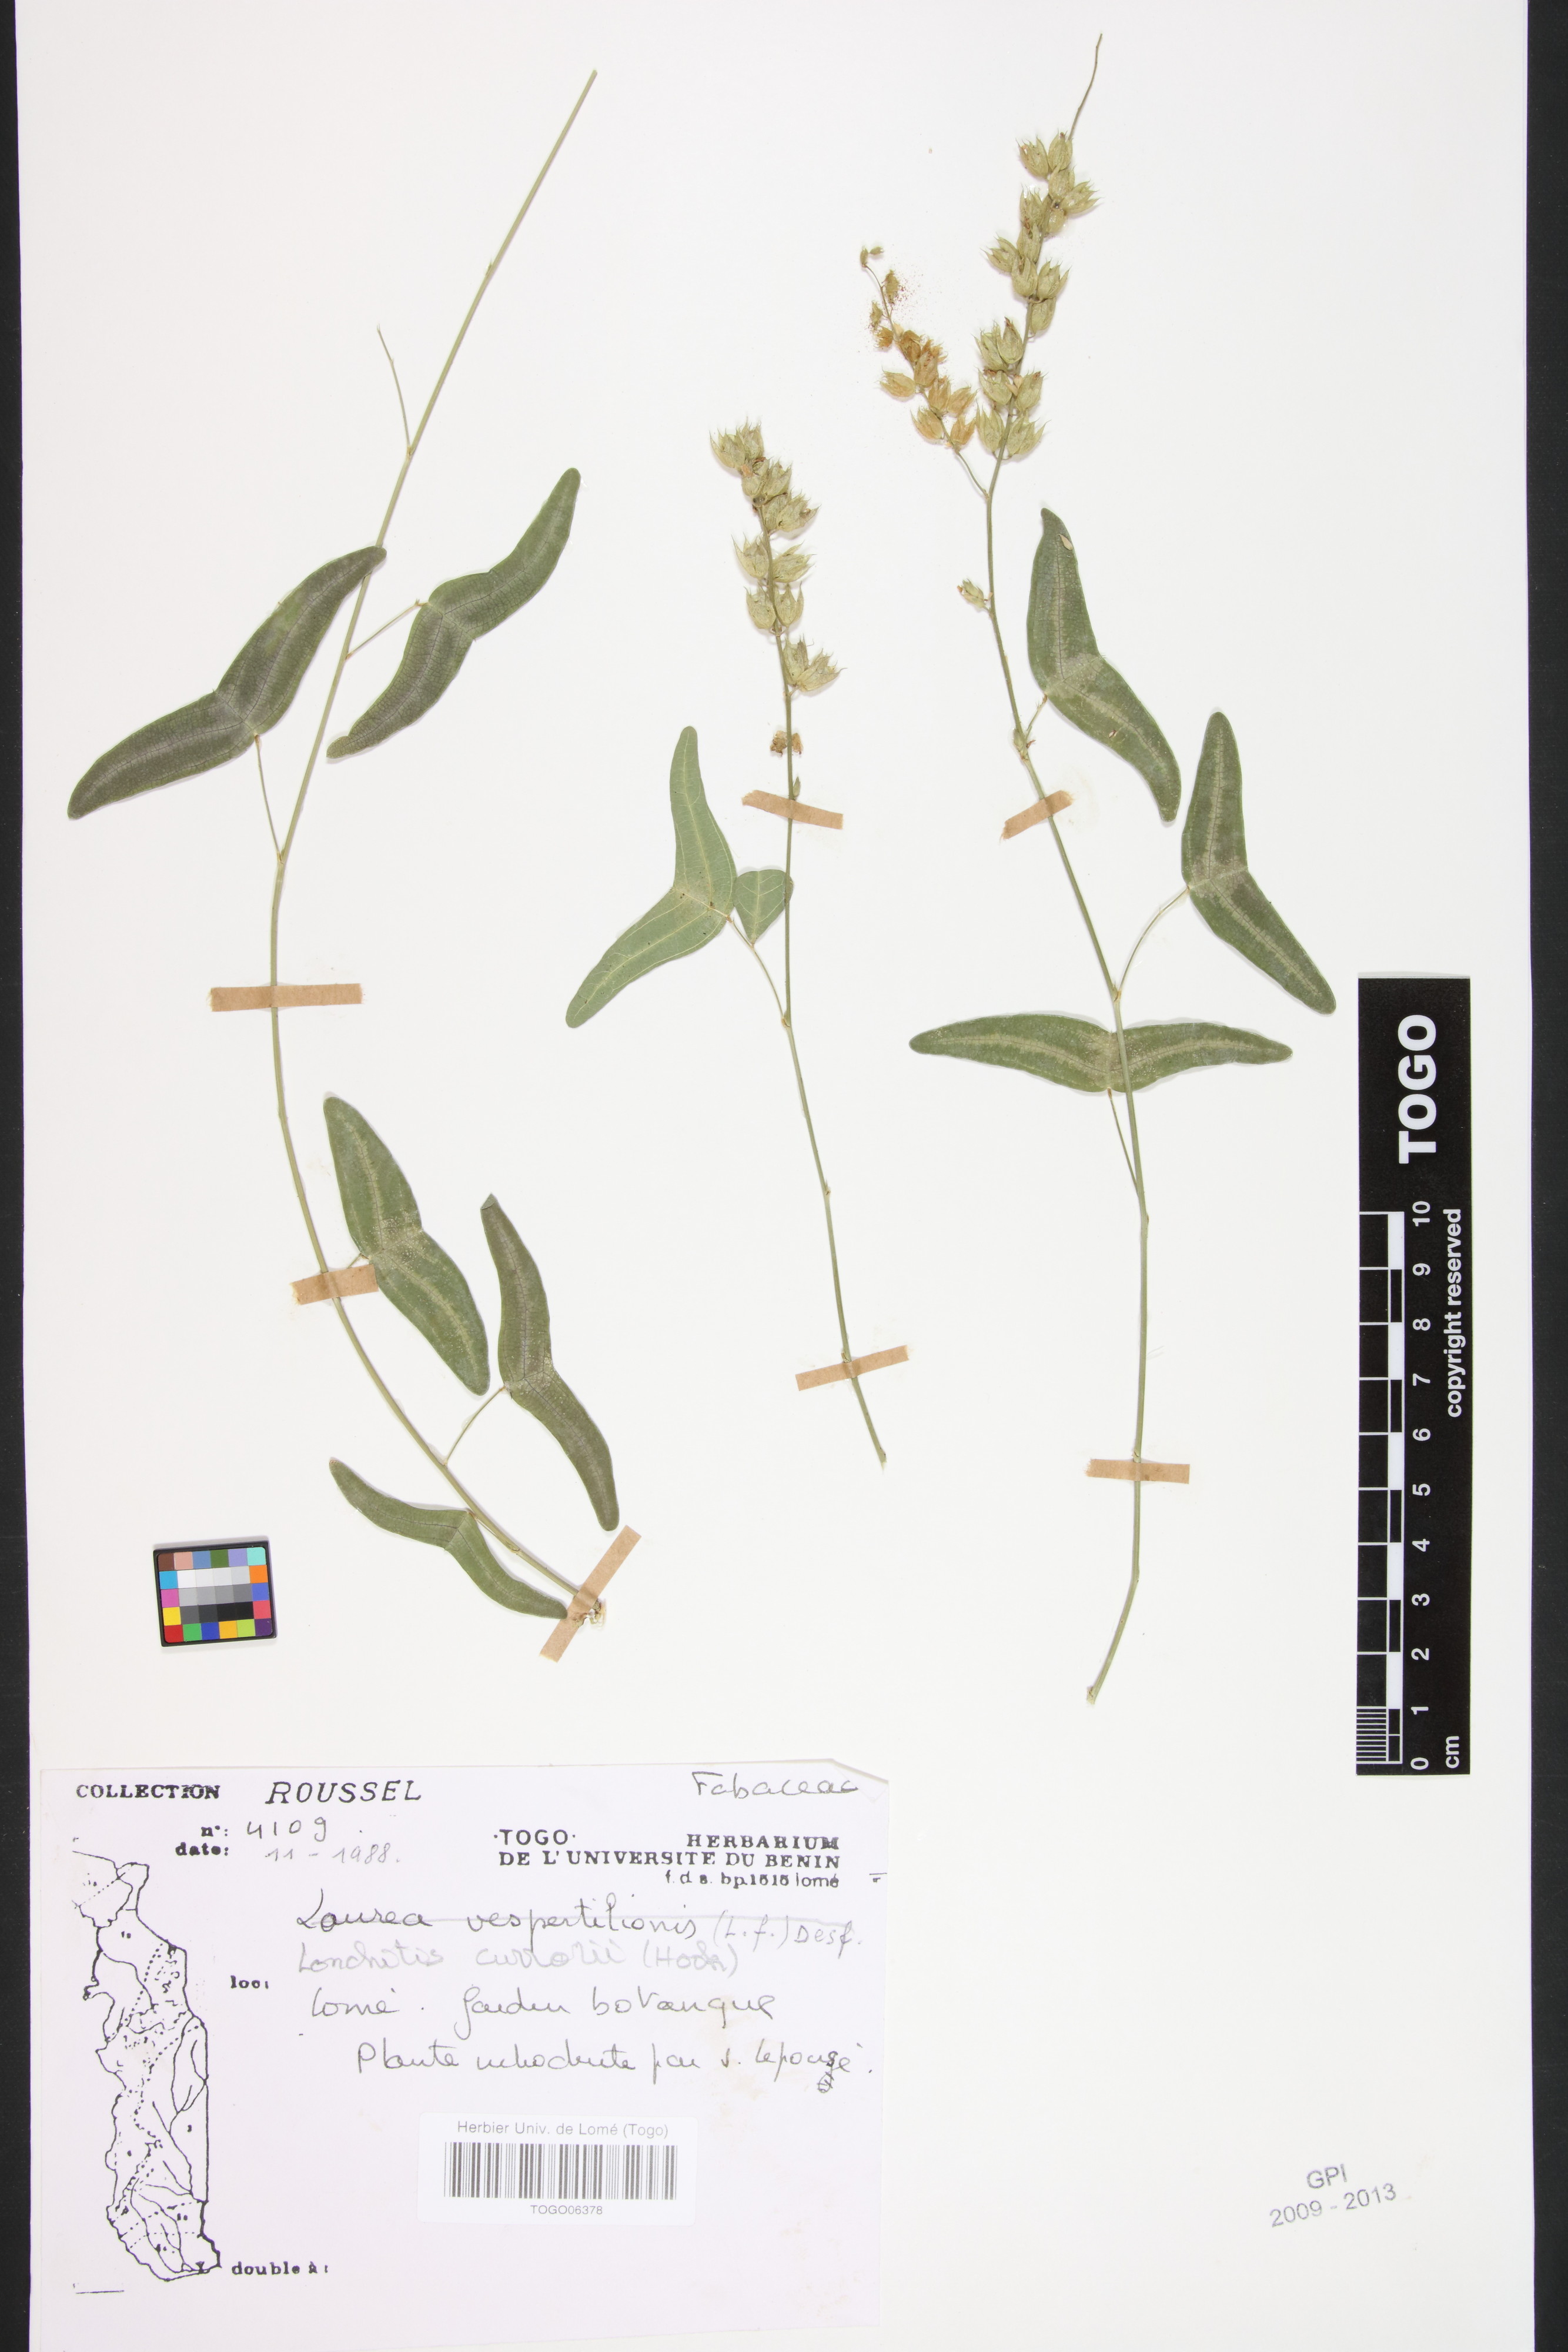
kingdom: Plantae
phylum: Tracheophyta
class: Polypodiopsida
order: Polypodiales
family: Dennstaedtiaceae
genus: Blotiella
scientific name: Blotiella currorii
